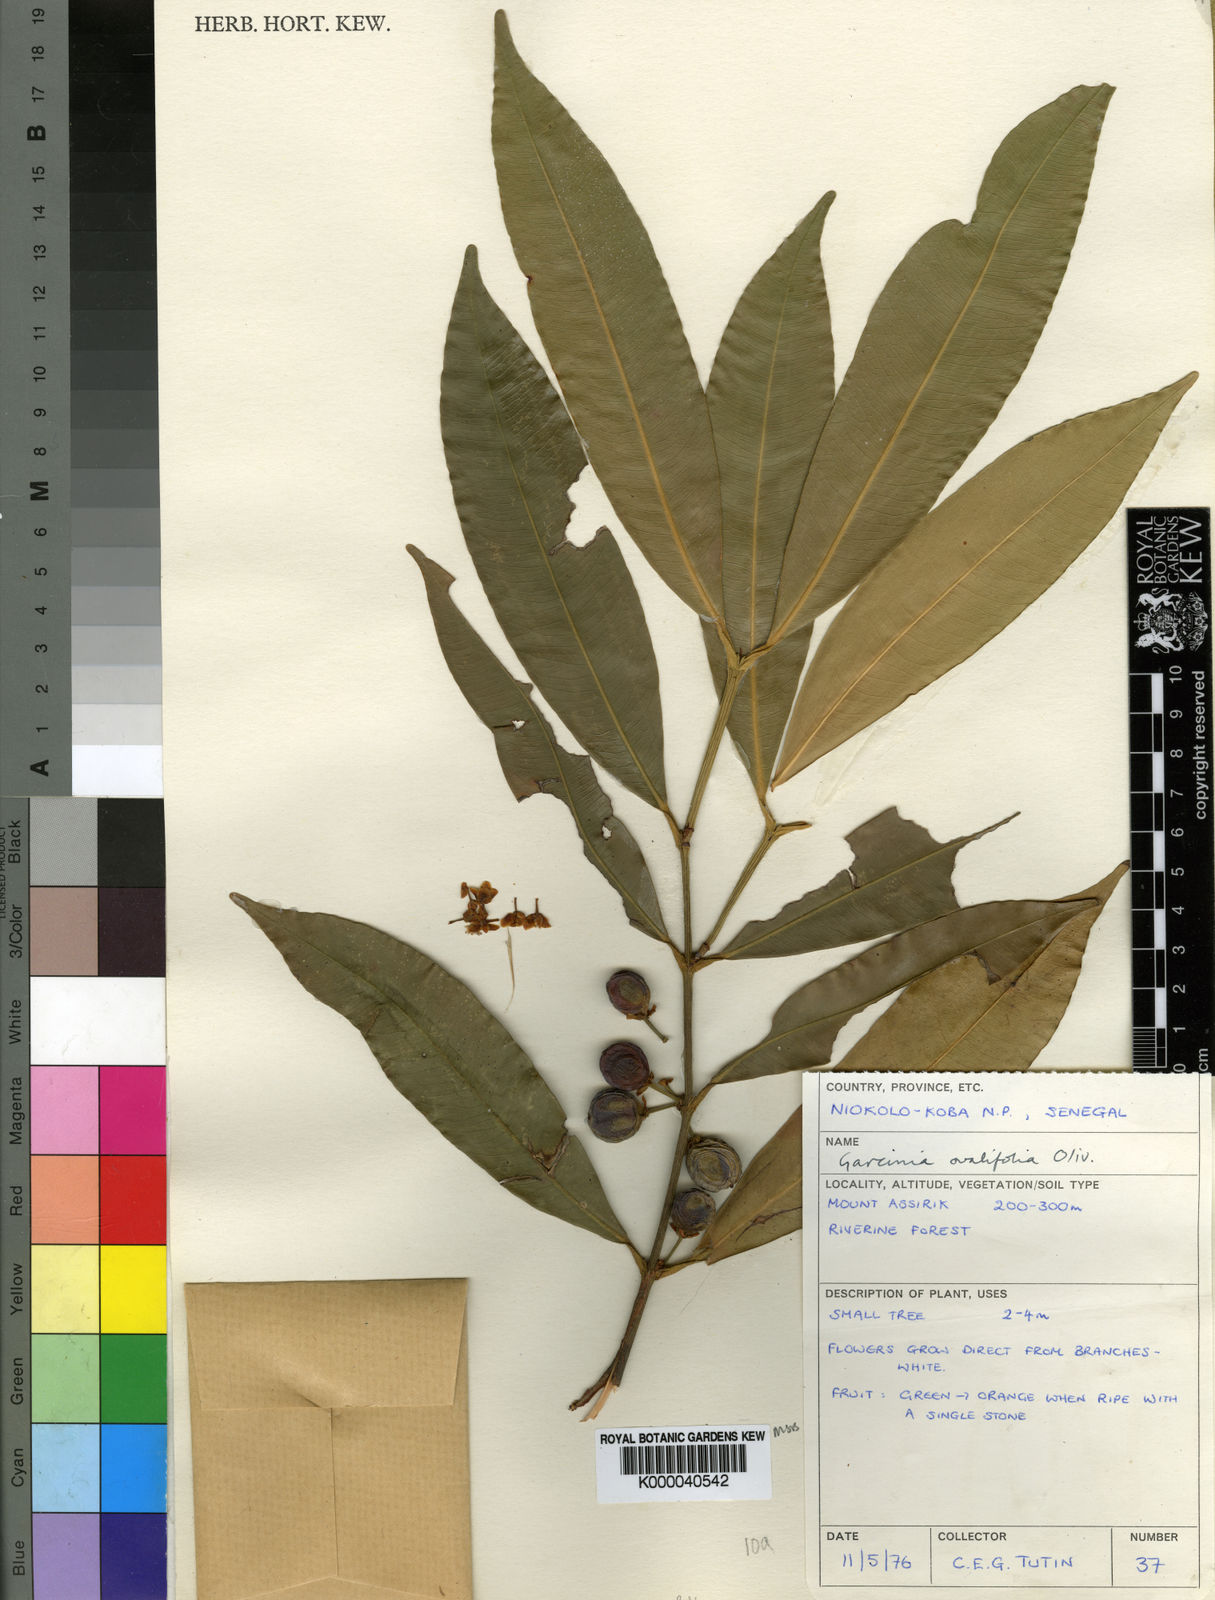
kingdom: Plantae
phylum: Tracheophyta
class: Magnoliopsida
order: Malpighiales
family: Clusiaceae
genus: Garcinia
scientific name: Garcinia ovalifolia
